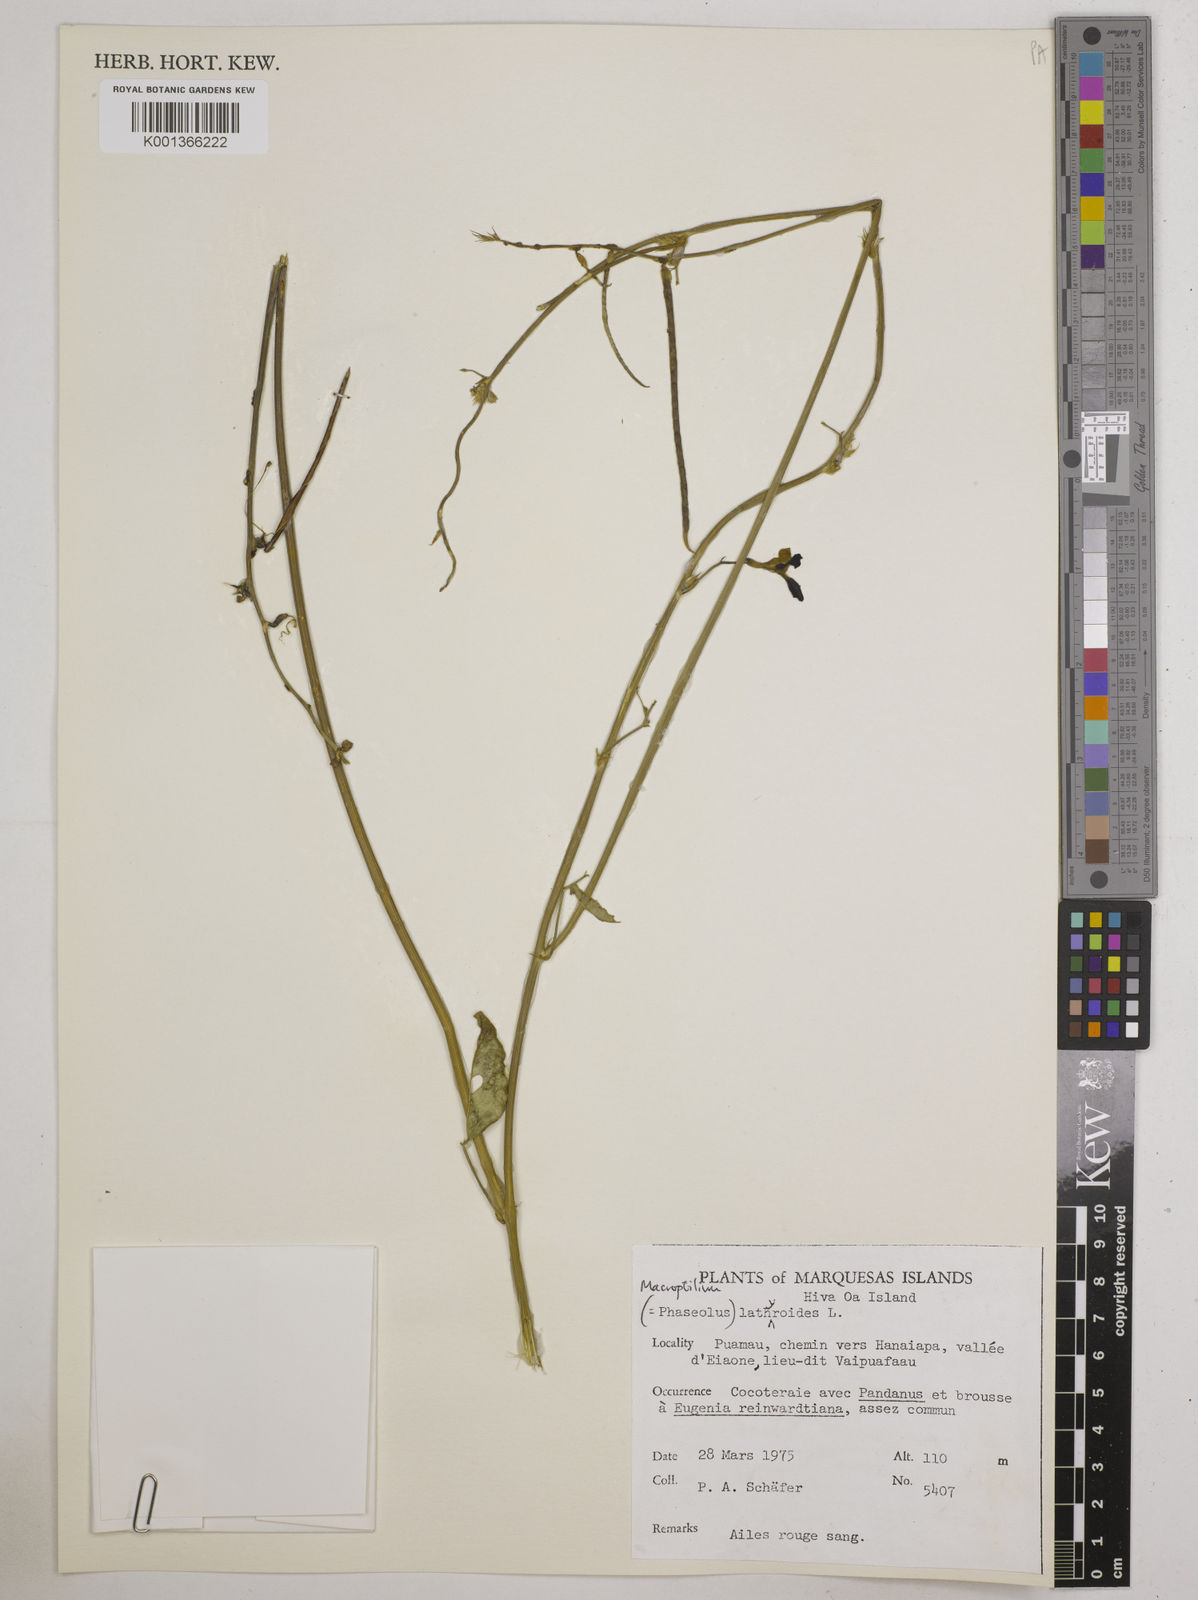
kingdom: Plantae
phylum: Tracheophyta
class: Magnoliopsida
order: Fabales
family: Fabaceae
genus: Macroptilium
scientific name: Macroptilium lathyroides
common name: Wild bushbean
